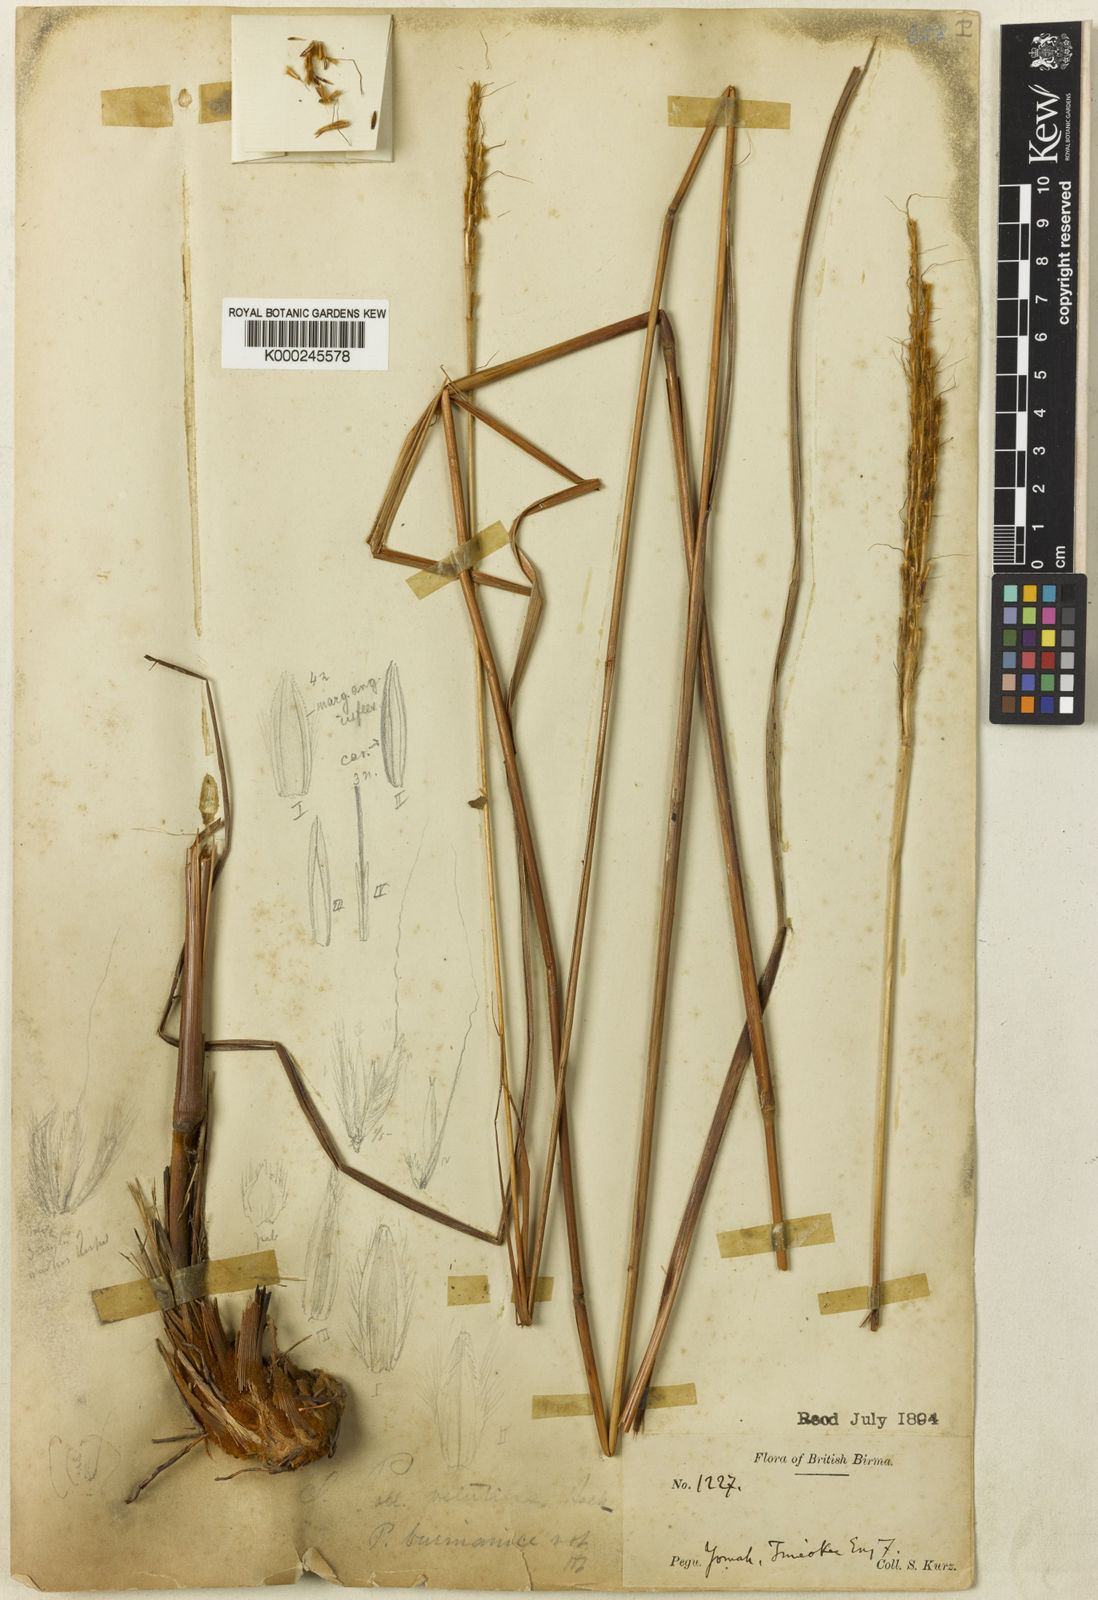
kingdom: Plantae
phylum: Tracheophyta
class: Liliopsida
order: Poales
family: Poaceae
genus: Pseudopogonatherum
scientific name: Pseudopogonatherum speciosum
